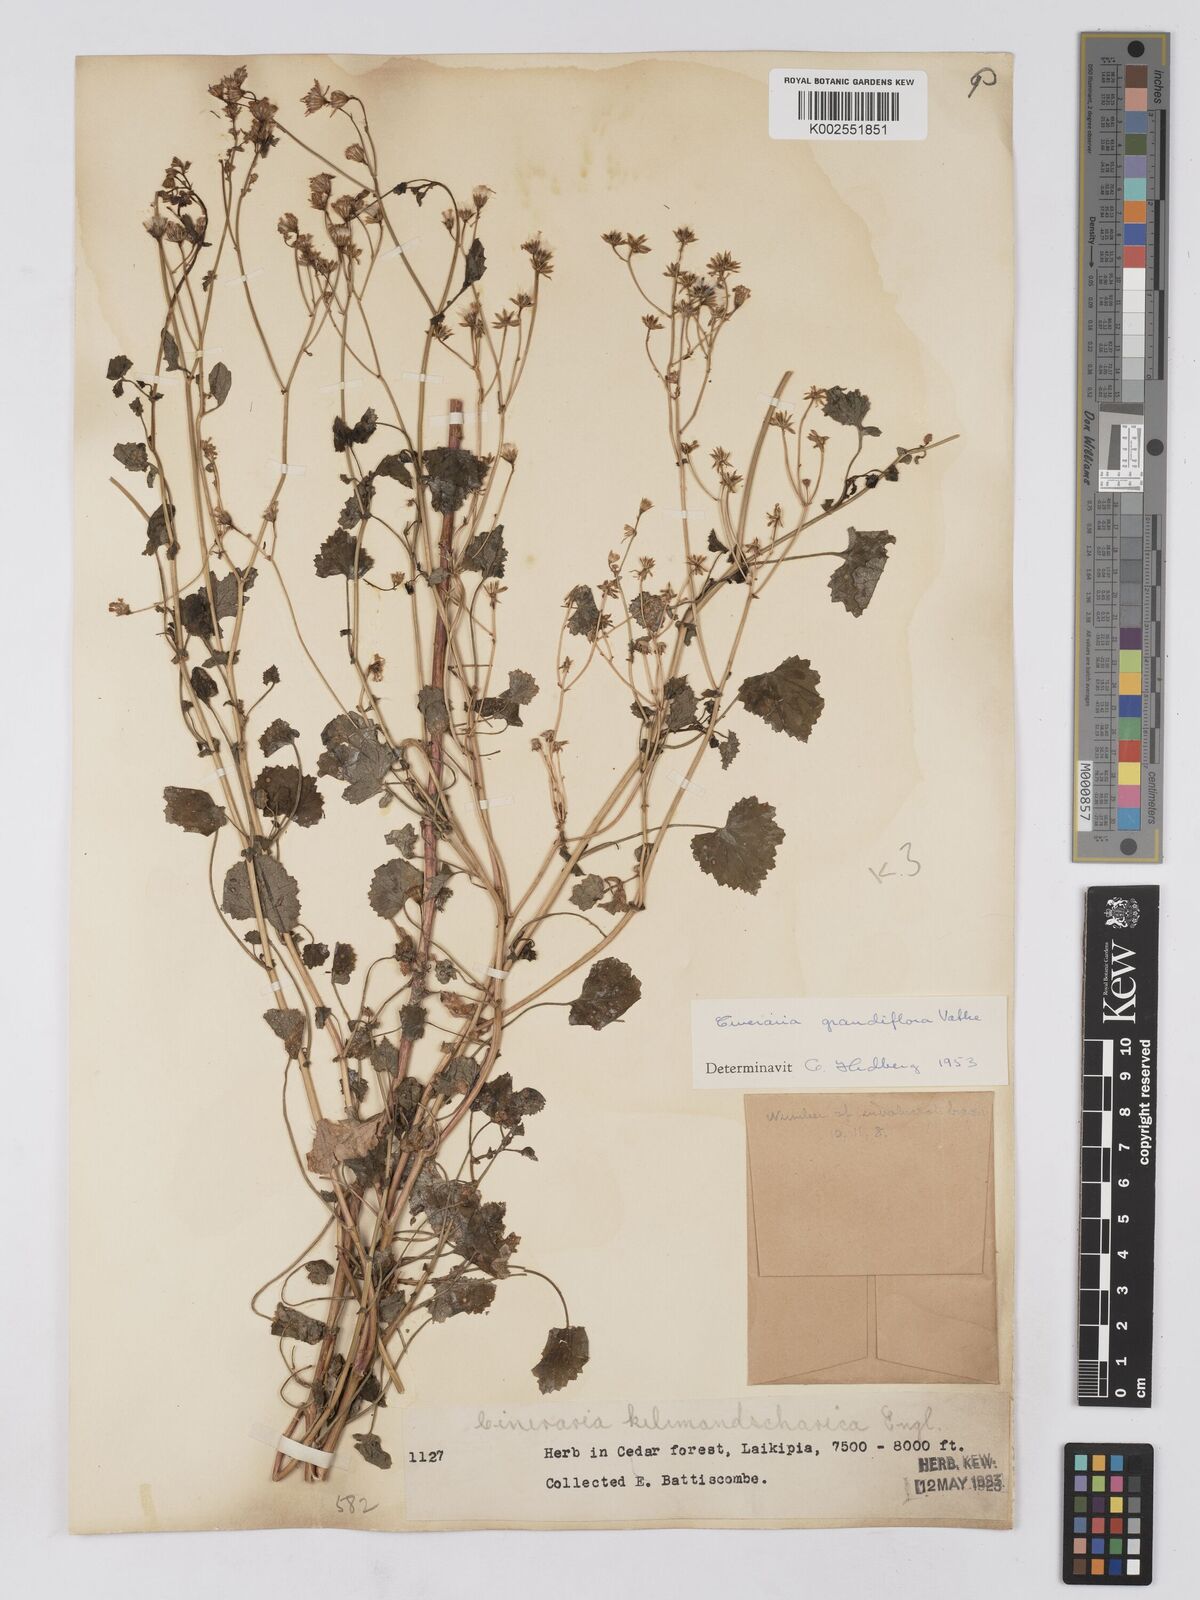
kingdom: Plantae
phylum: Tracheophyta
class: Magnoliopsida
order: Asterales
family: Asteraceae
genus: Cineraria
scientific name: Cineraria deltoidea
